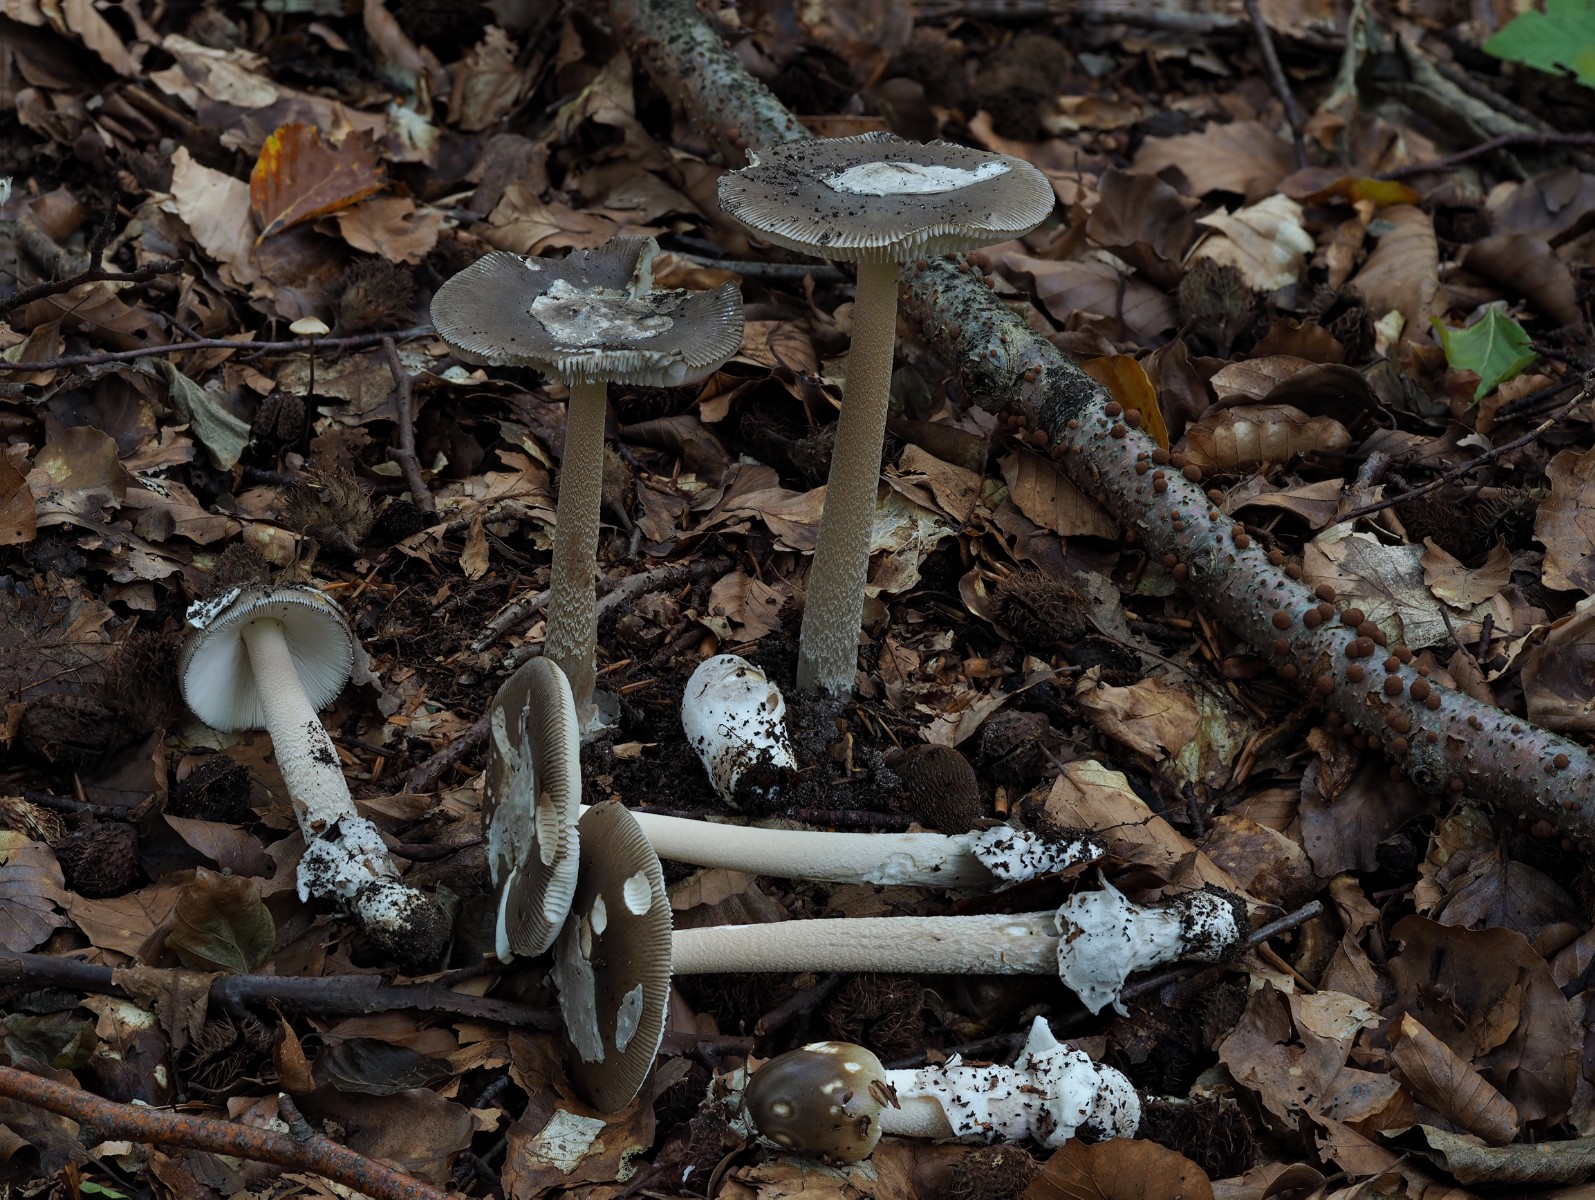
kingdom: Fungi
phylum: Basidiomycota
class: Agaricomycetes
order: Agaricales
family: Amanitaceae
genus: Amanita
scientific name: Amanita submembranacea
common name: gråspættet kam-fluesvamp
